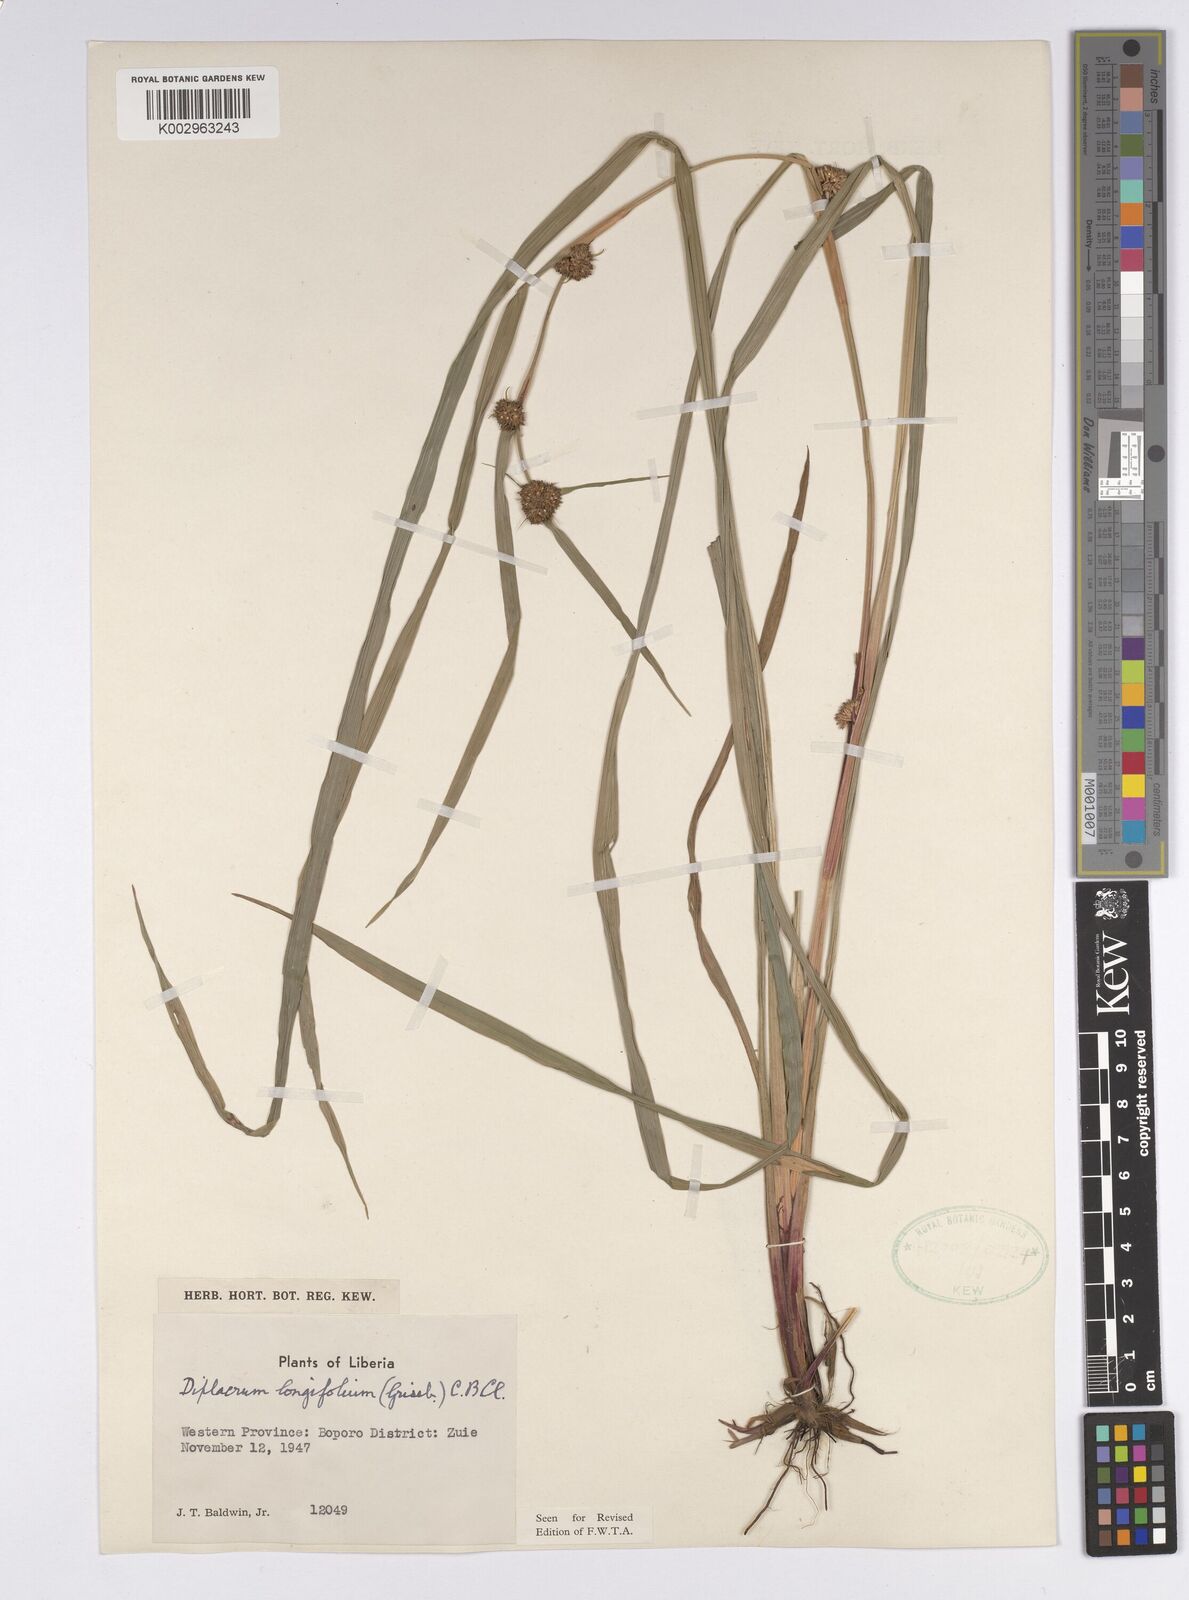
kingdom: Plantae
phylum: Tracheophyta
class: Liliopsida
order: Poales
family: Cyperaceae
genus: Diplacrum
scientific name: Diplacrum capitatum
